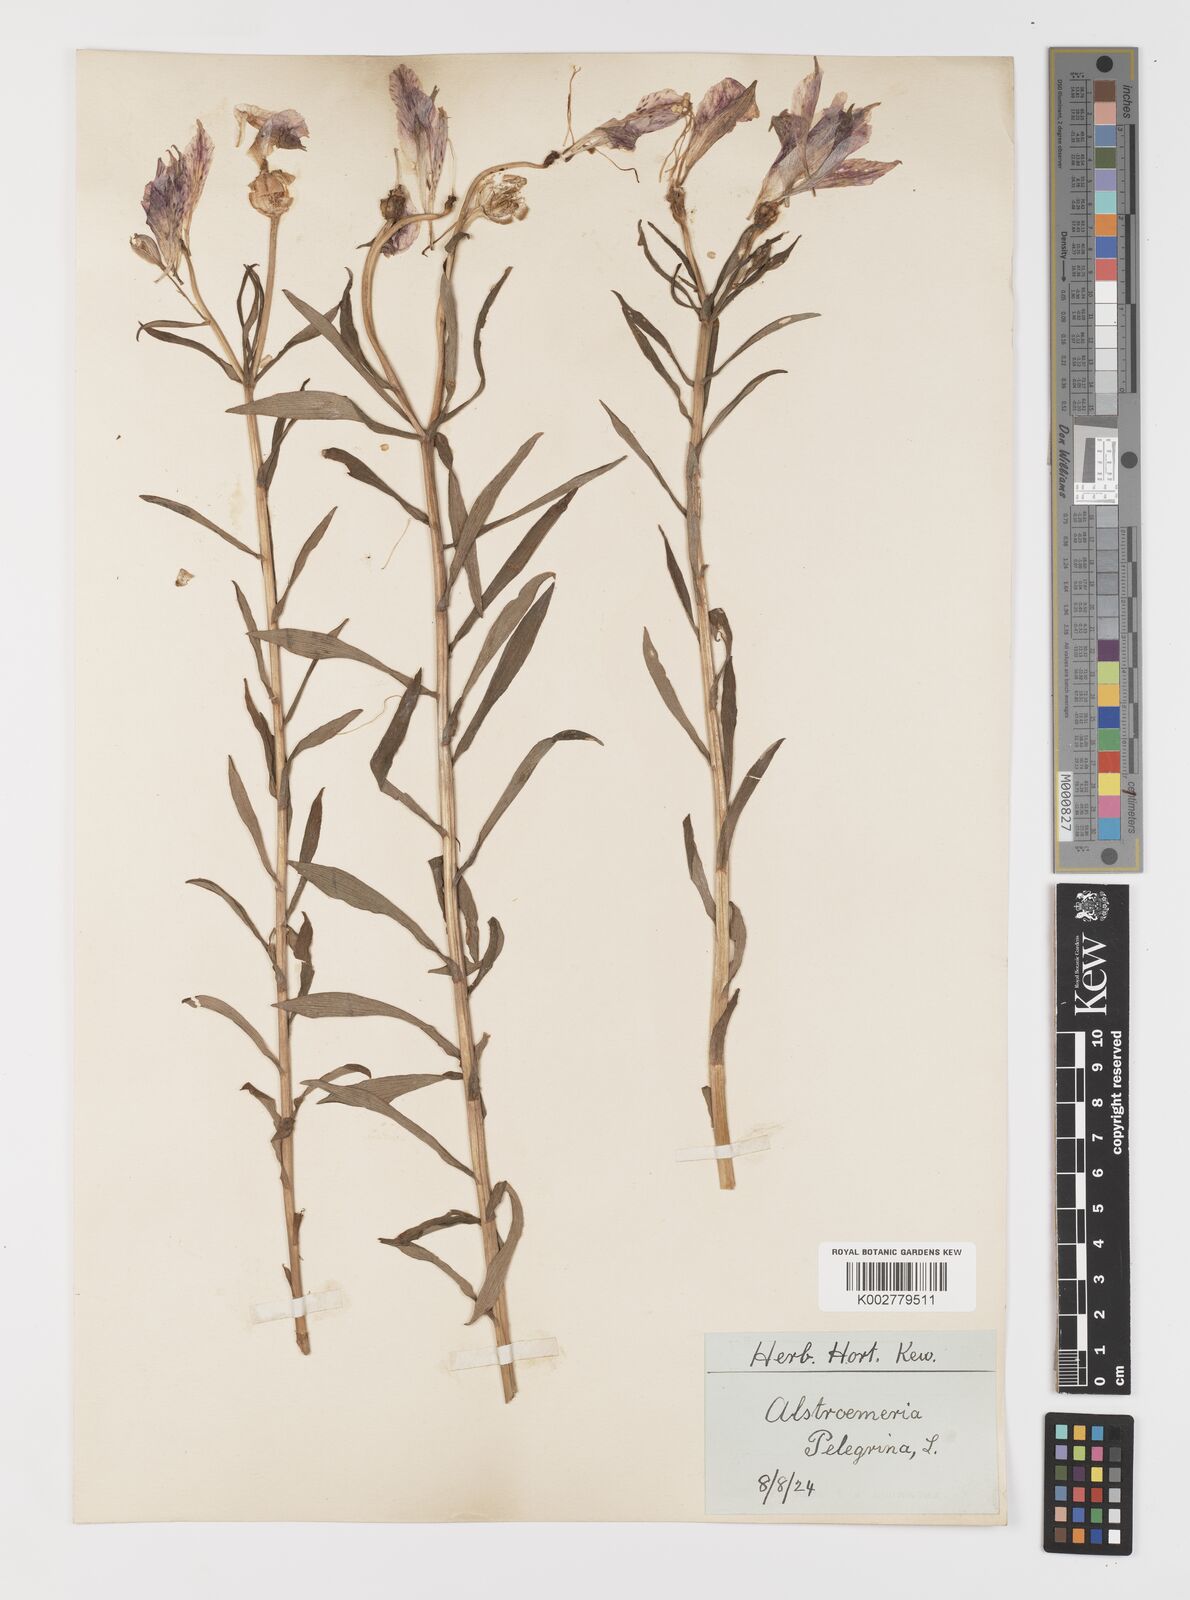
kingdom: Plantae
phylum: Tracheophyta
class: Liliopsida
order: Liliales
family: Alstroemeriaceae
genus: Alstroemeria
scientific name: Alstroemeria pelegrina
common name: Peruvian-lily
